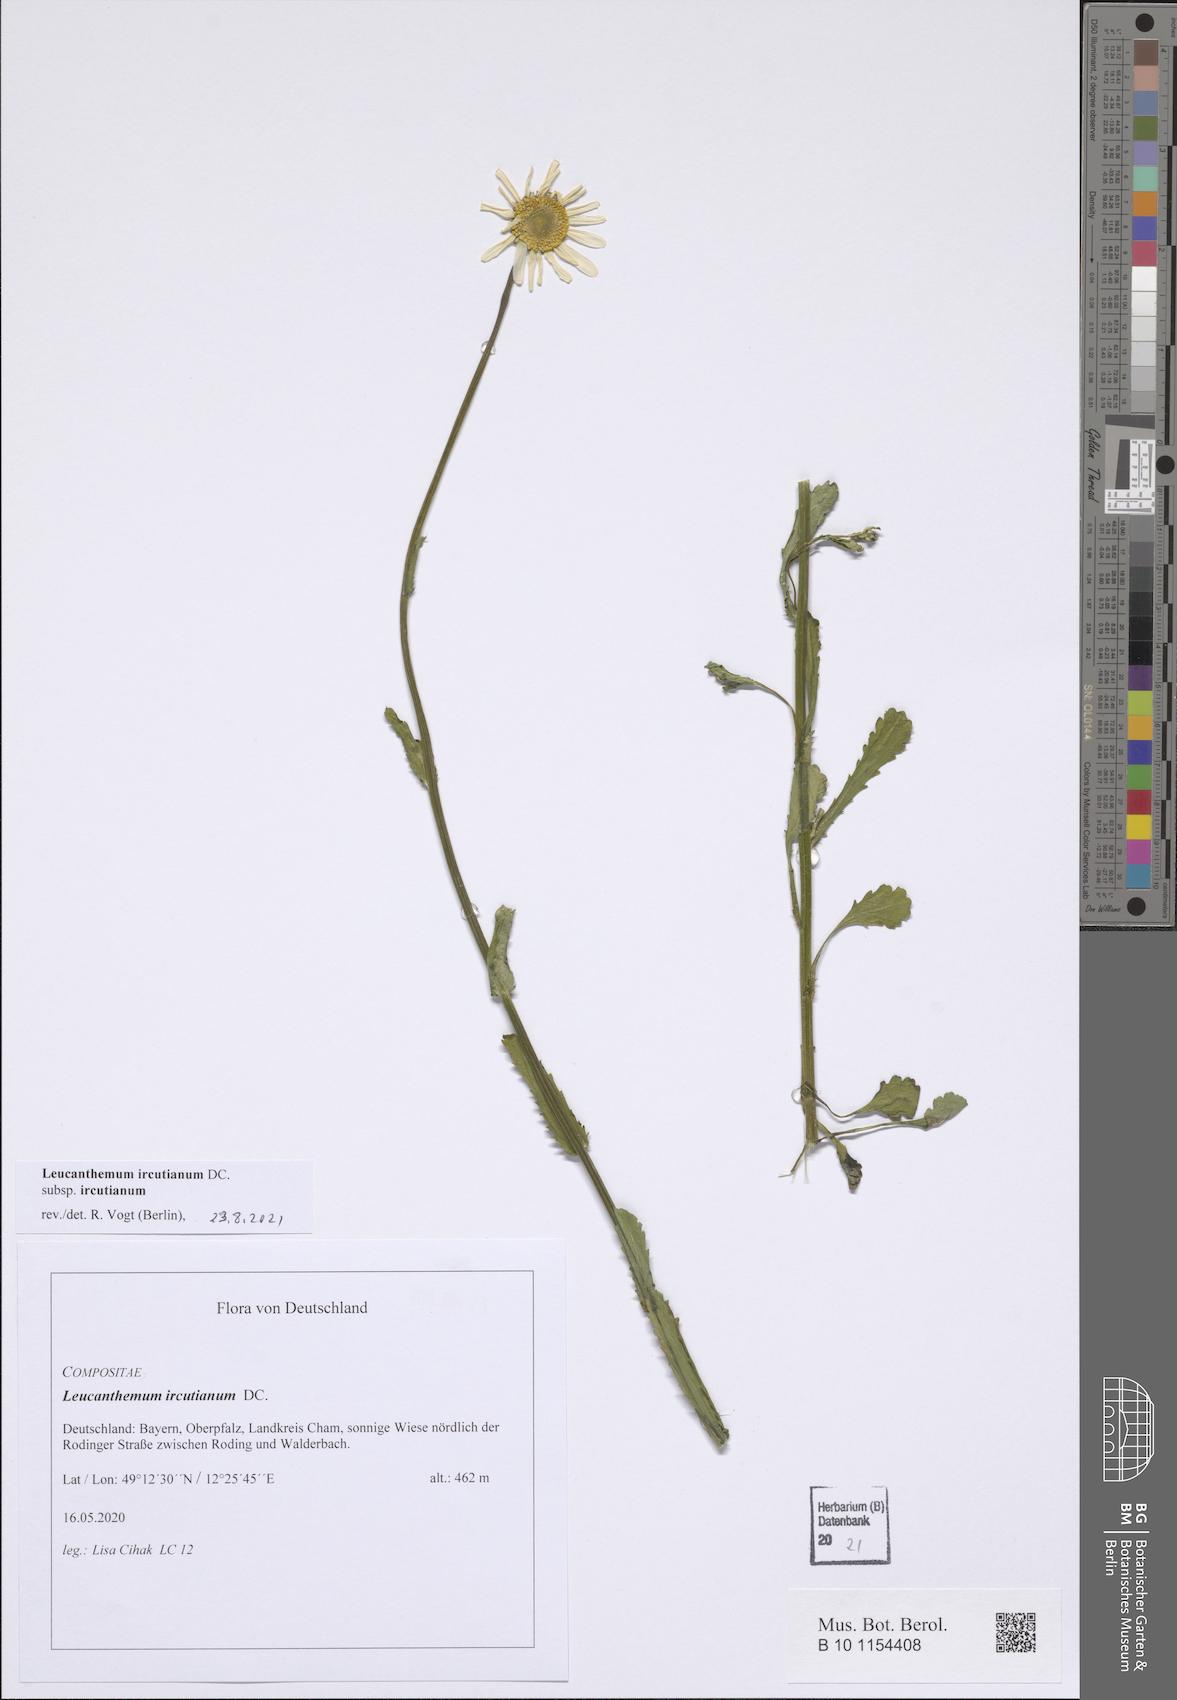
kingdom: Plantae
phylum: Tracheophyta
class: Magnoliopsida
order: Asterales
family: Asteraceae
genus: Leucanthemum
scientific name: Leucanthemum ircutianum
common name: Daisy
